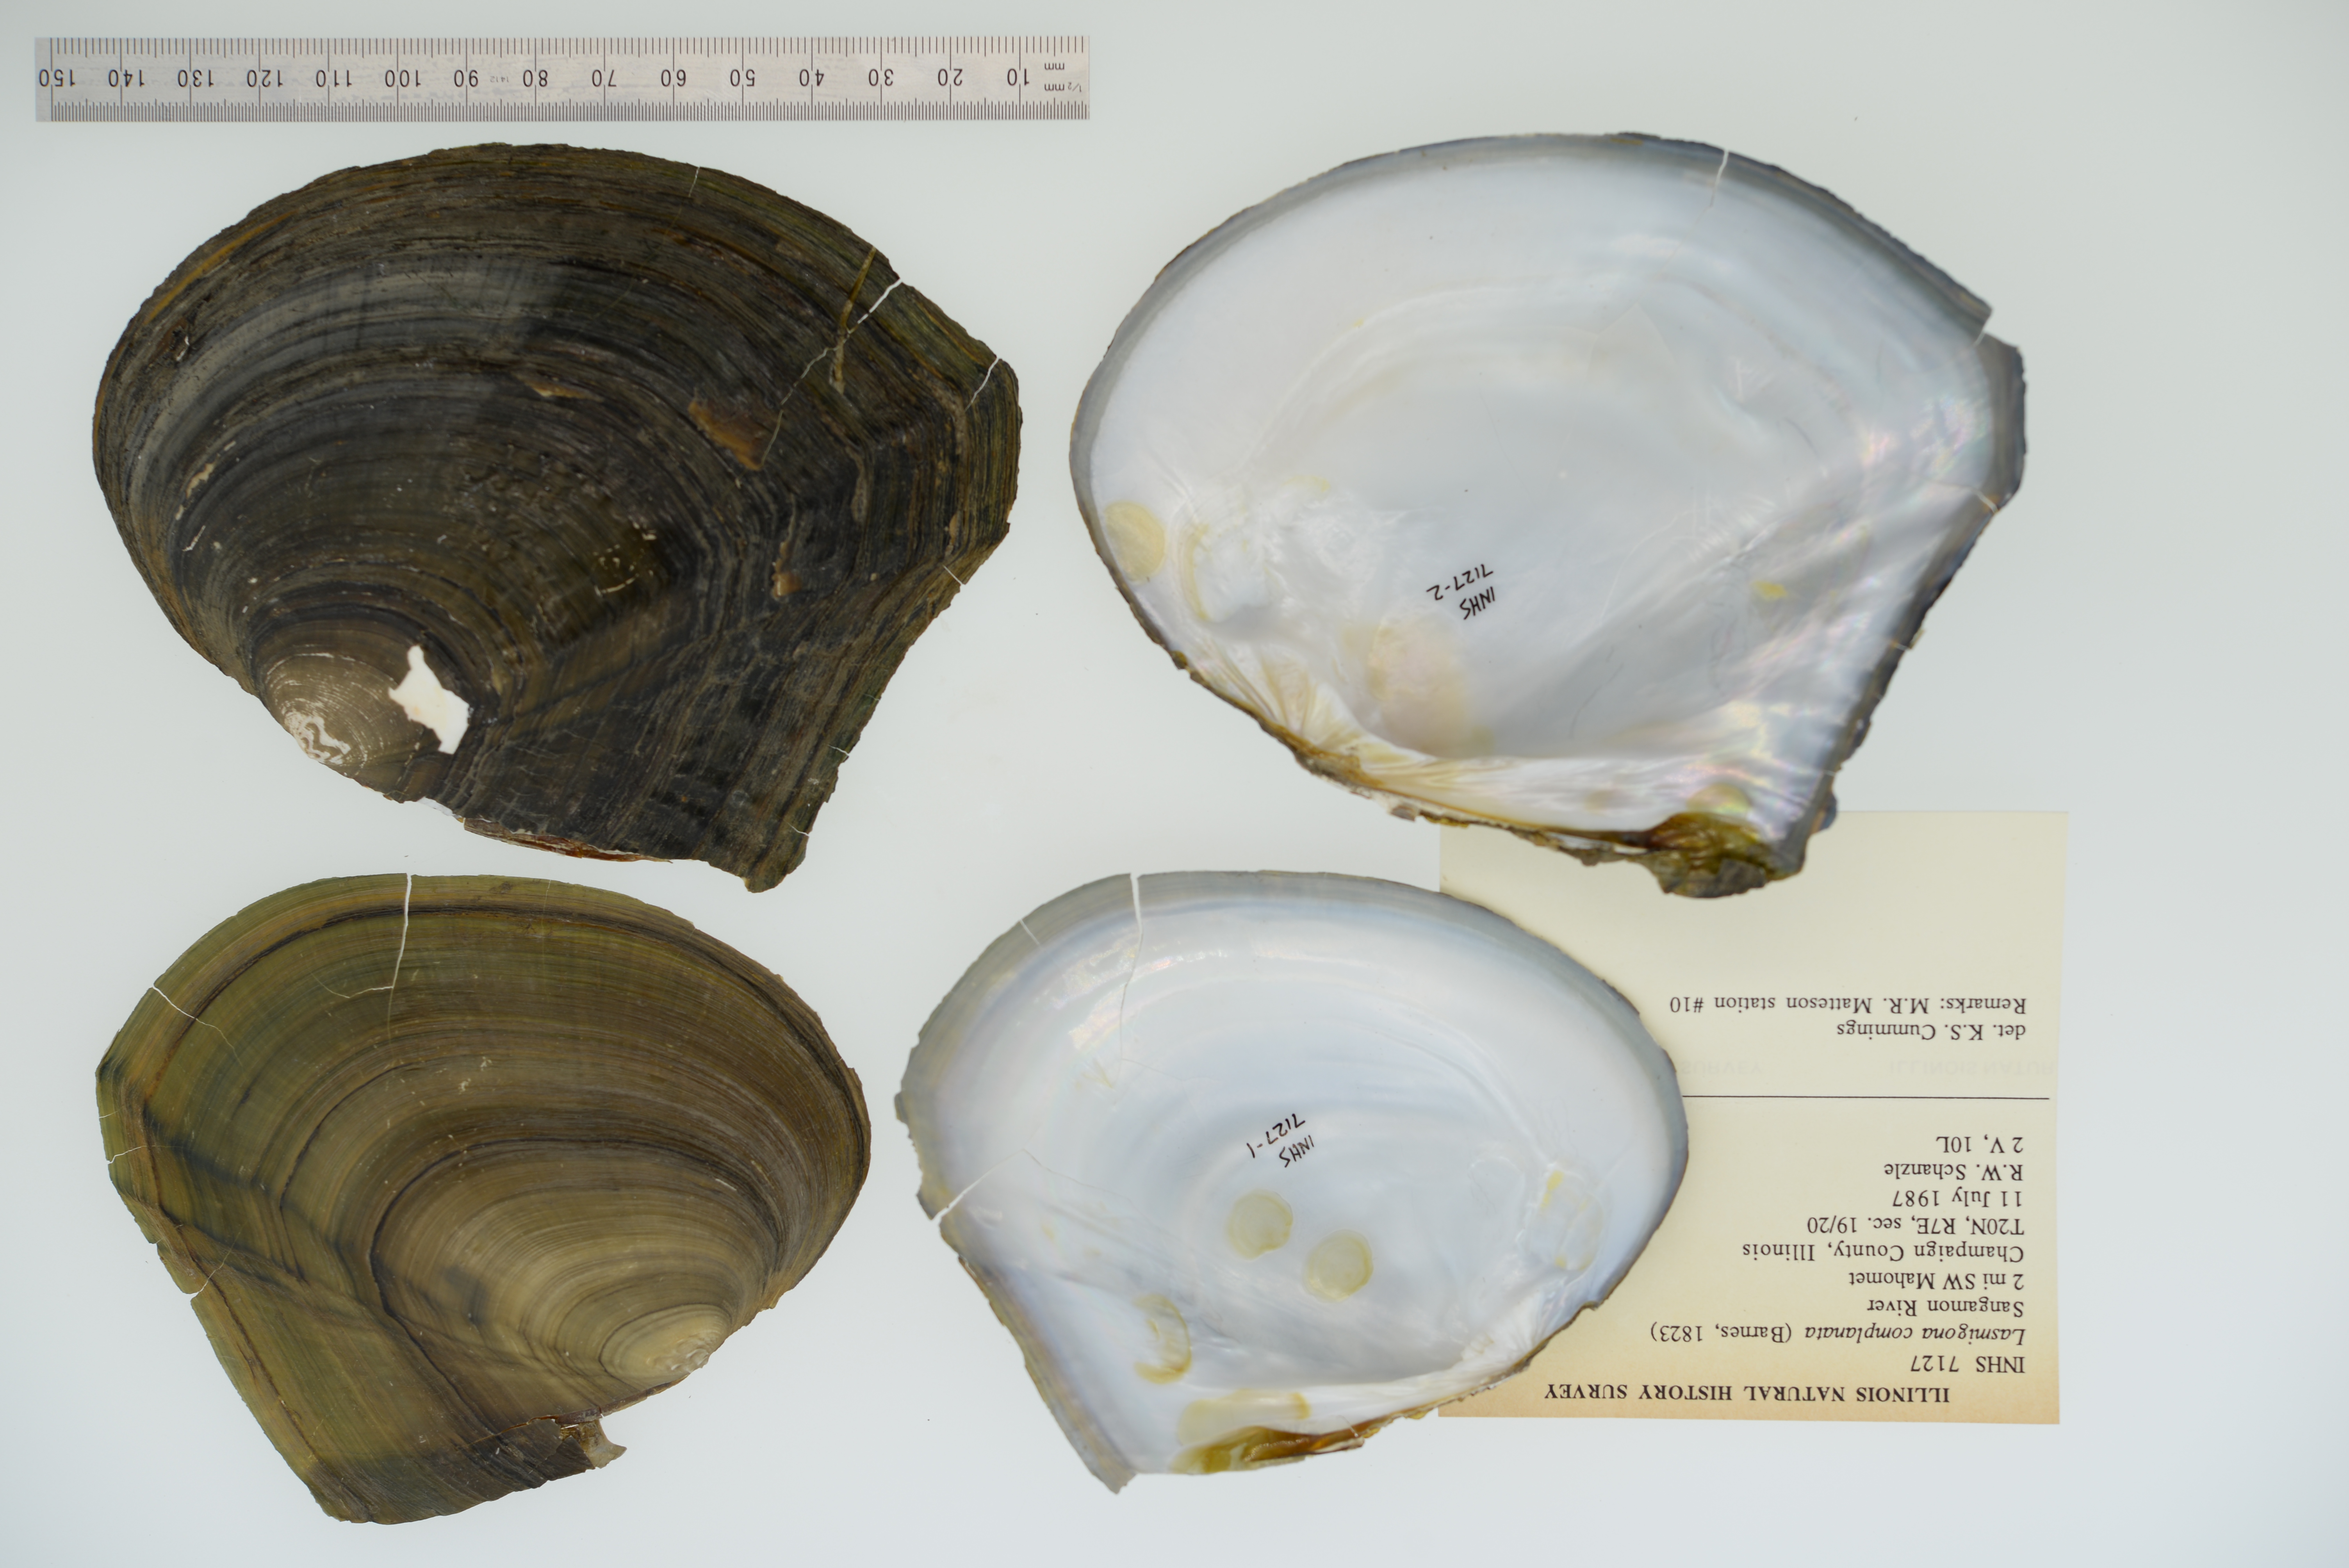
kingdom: Animalia
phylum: Mollusca
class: Bivalvia
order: Unionida
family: Unionidae
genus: Lasmigona
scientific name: Lasmigona complanata
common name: White heelsplitter
